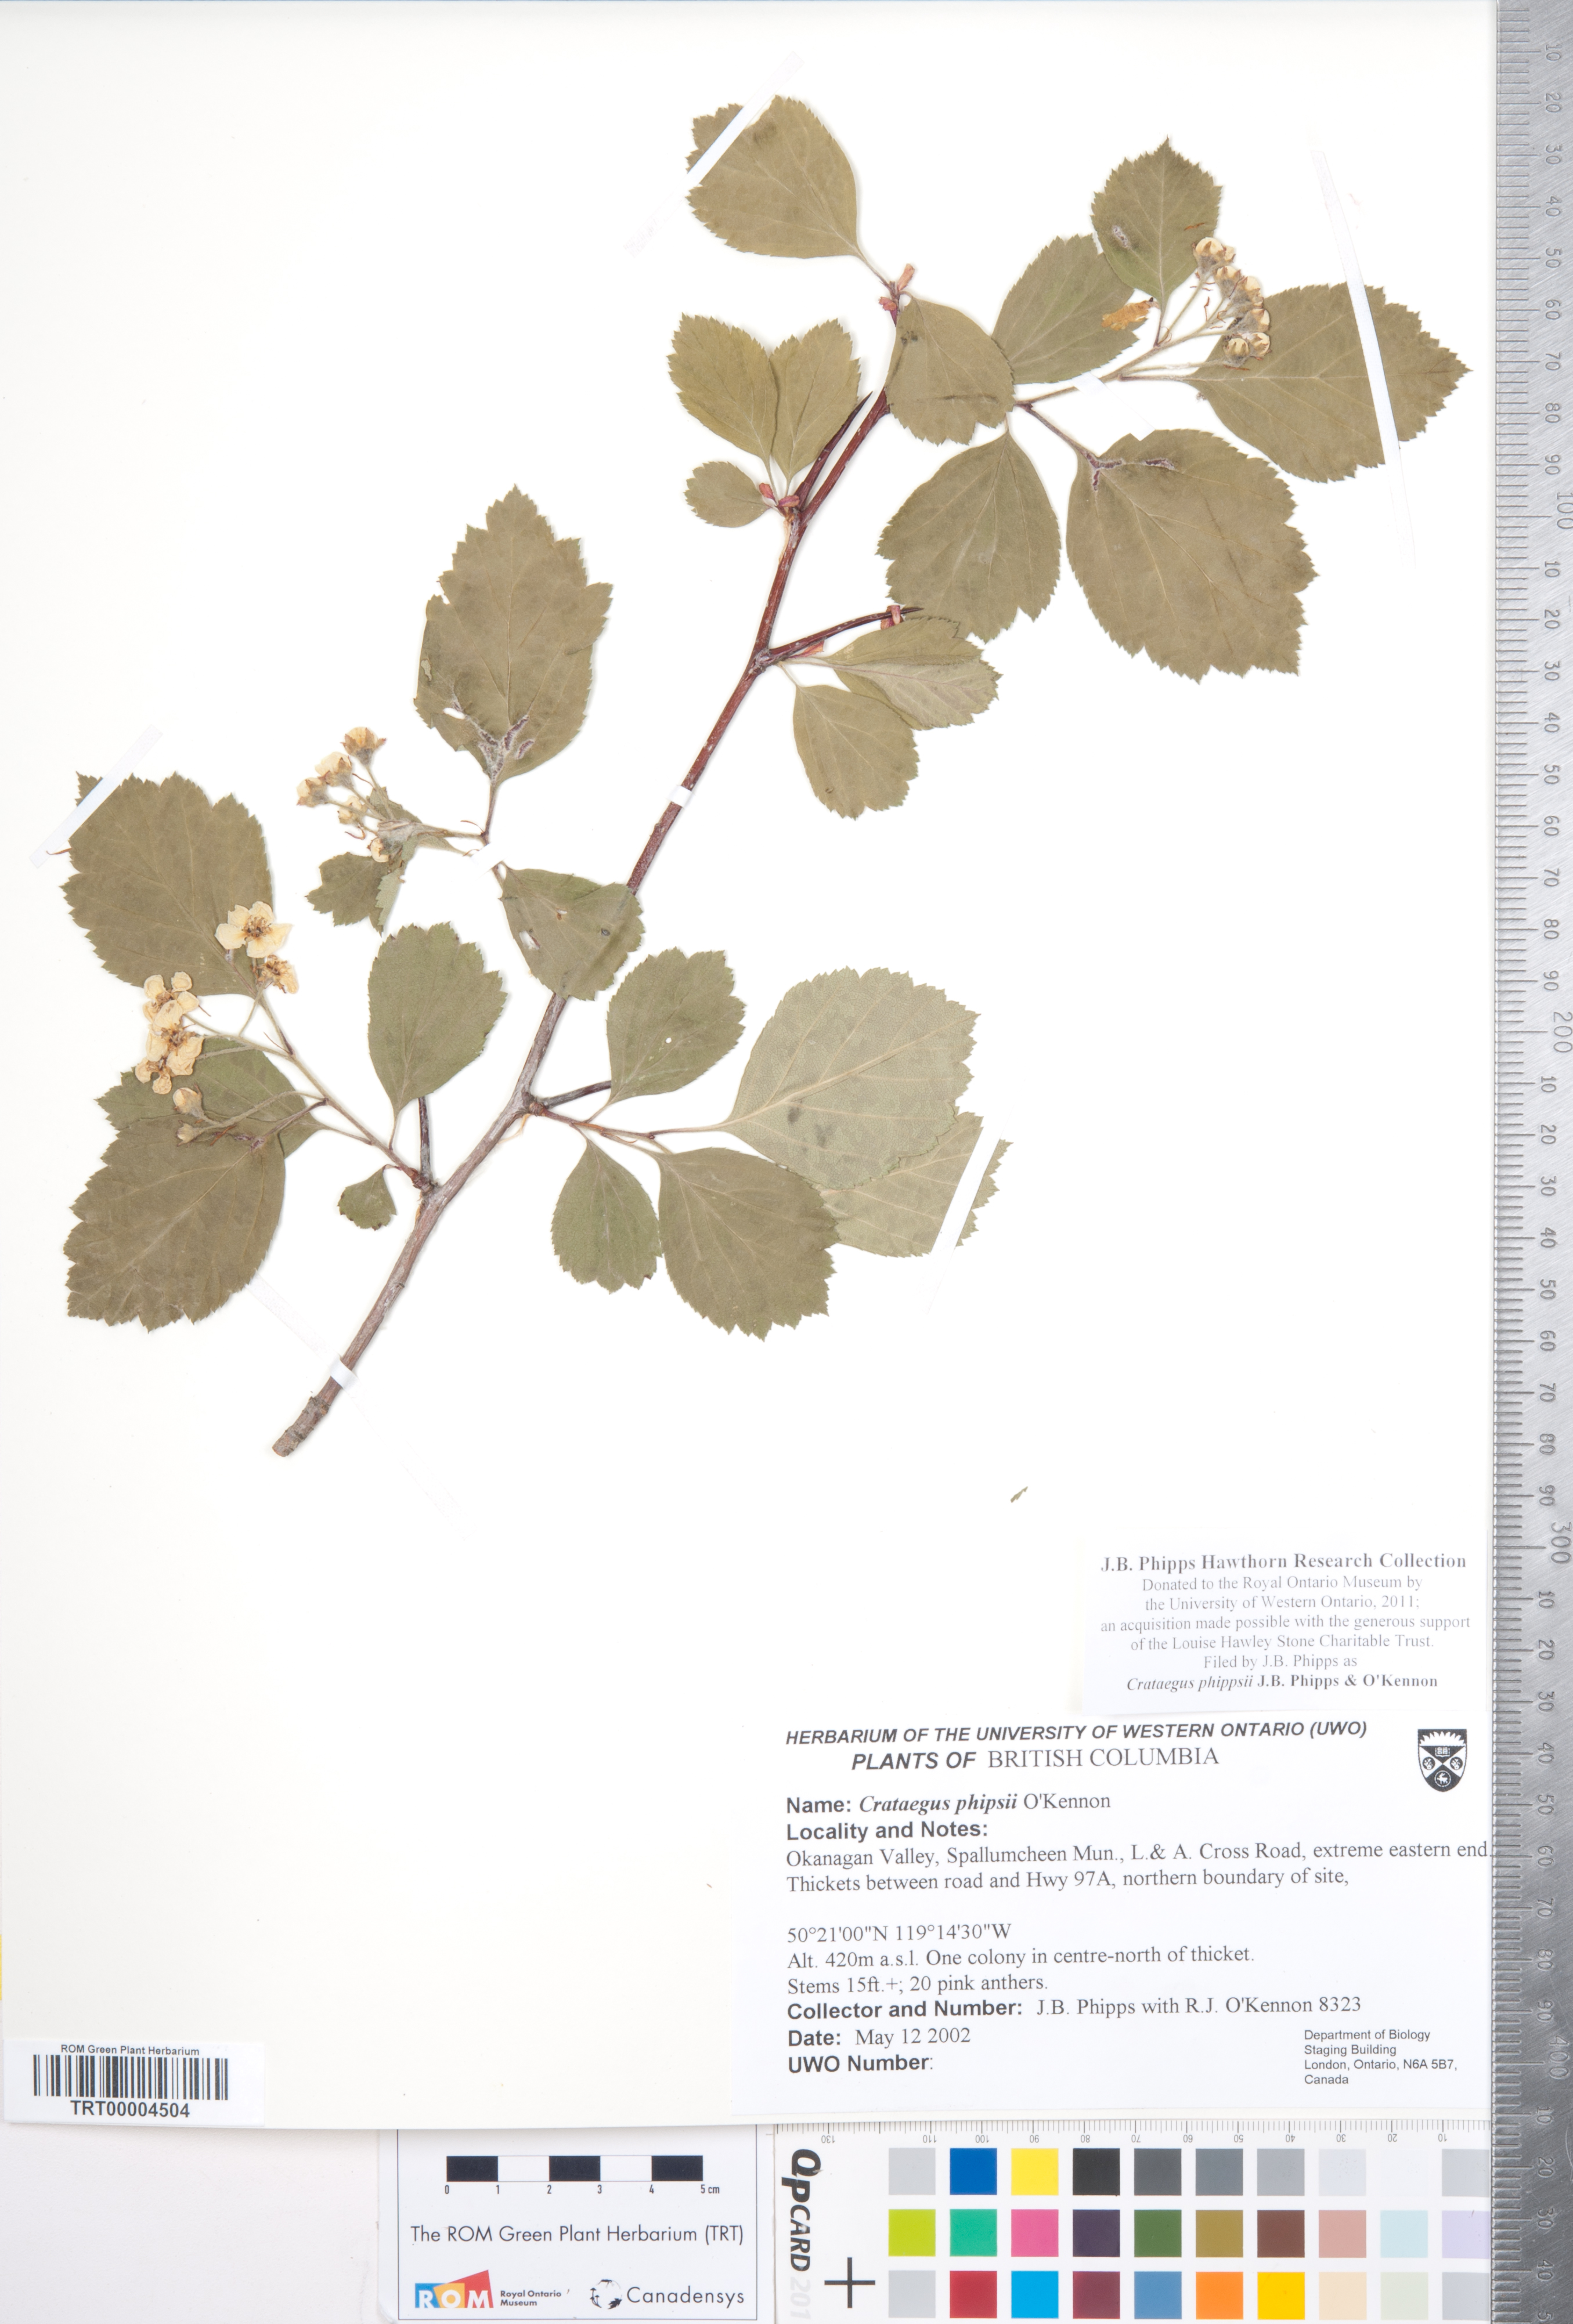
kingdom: Plantae
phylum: Tracheophyta
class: Magnoliopsida
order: Rosales
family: Rosaceae
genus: Crataegus
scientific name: Crataegus phippsii
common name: Phipps' hawthorn
